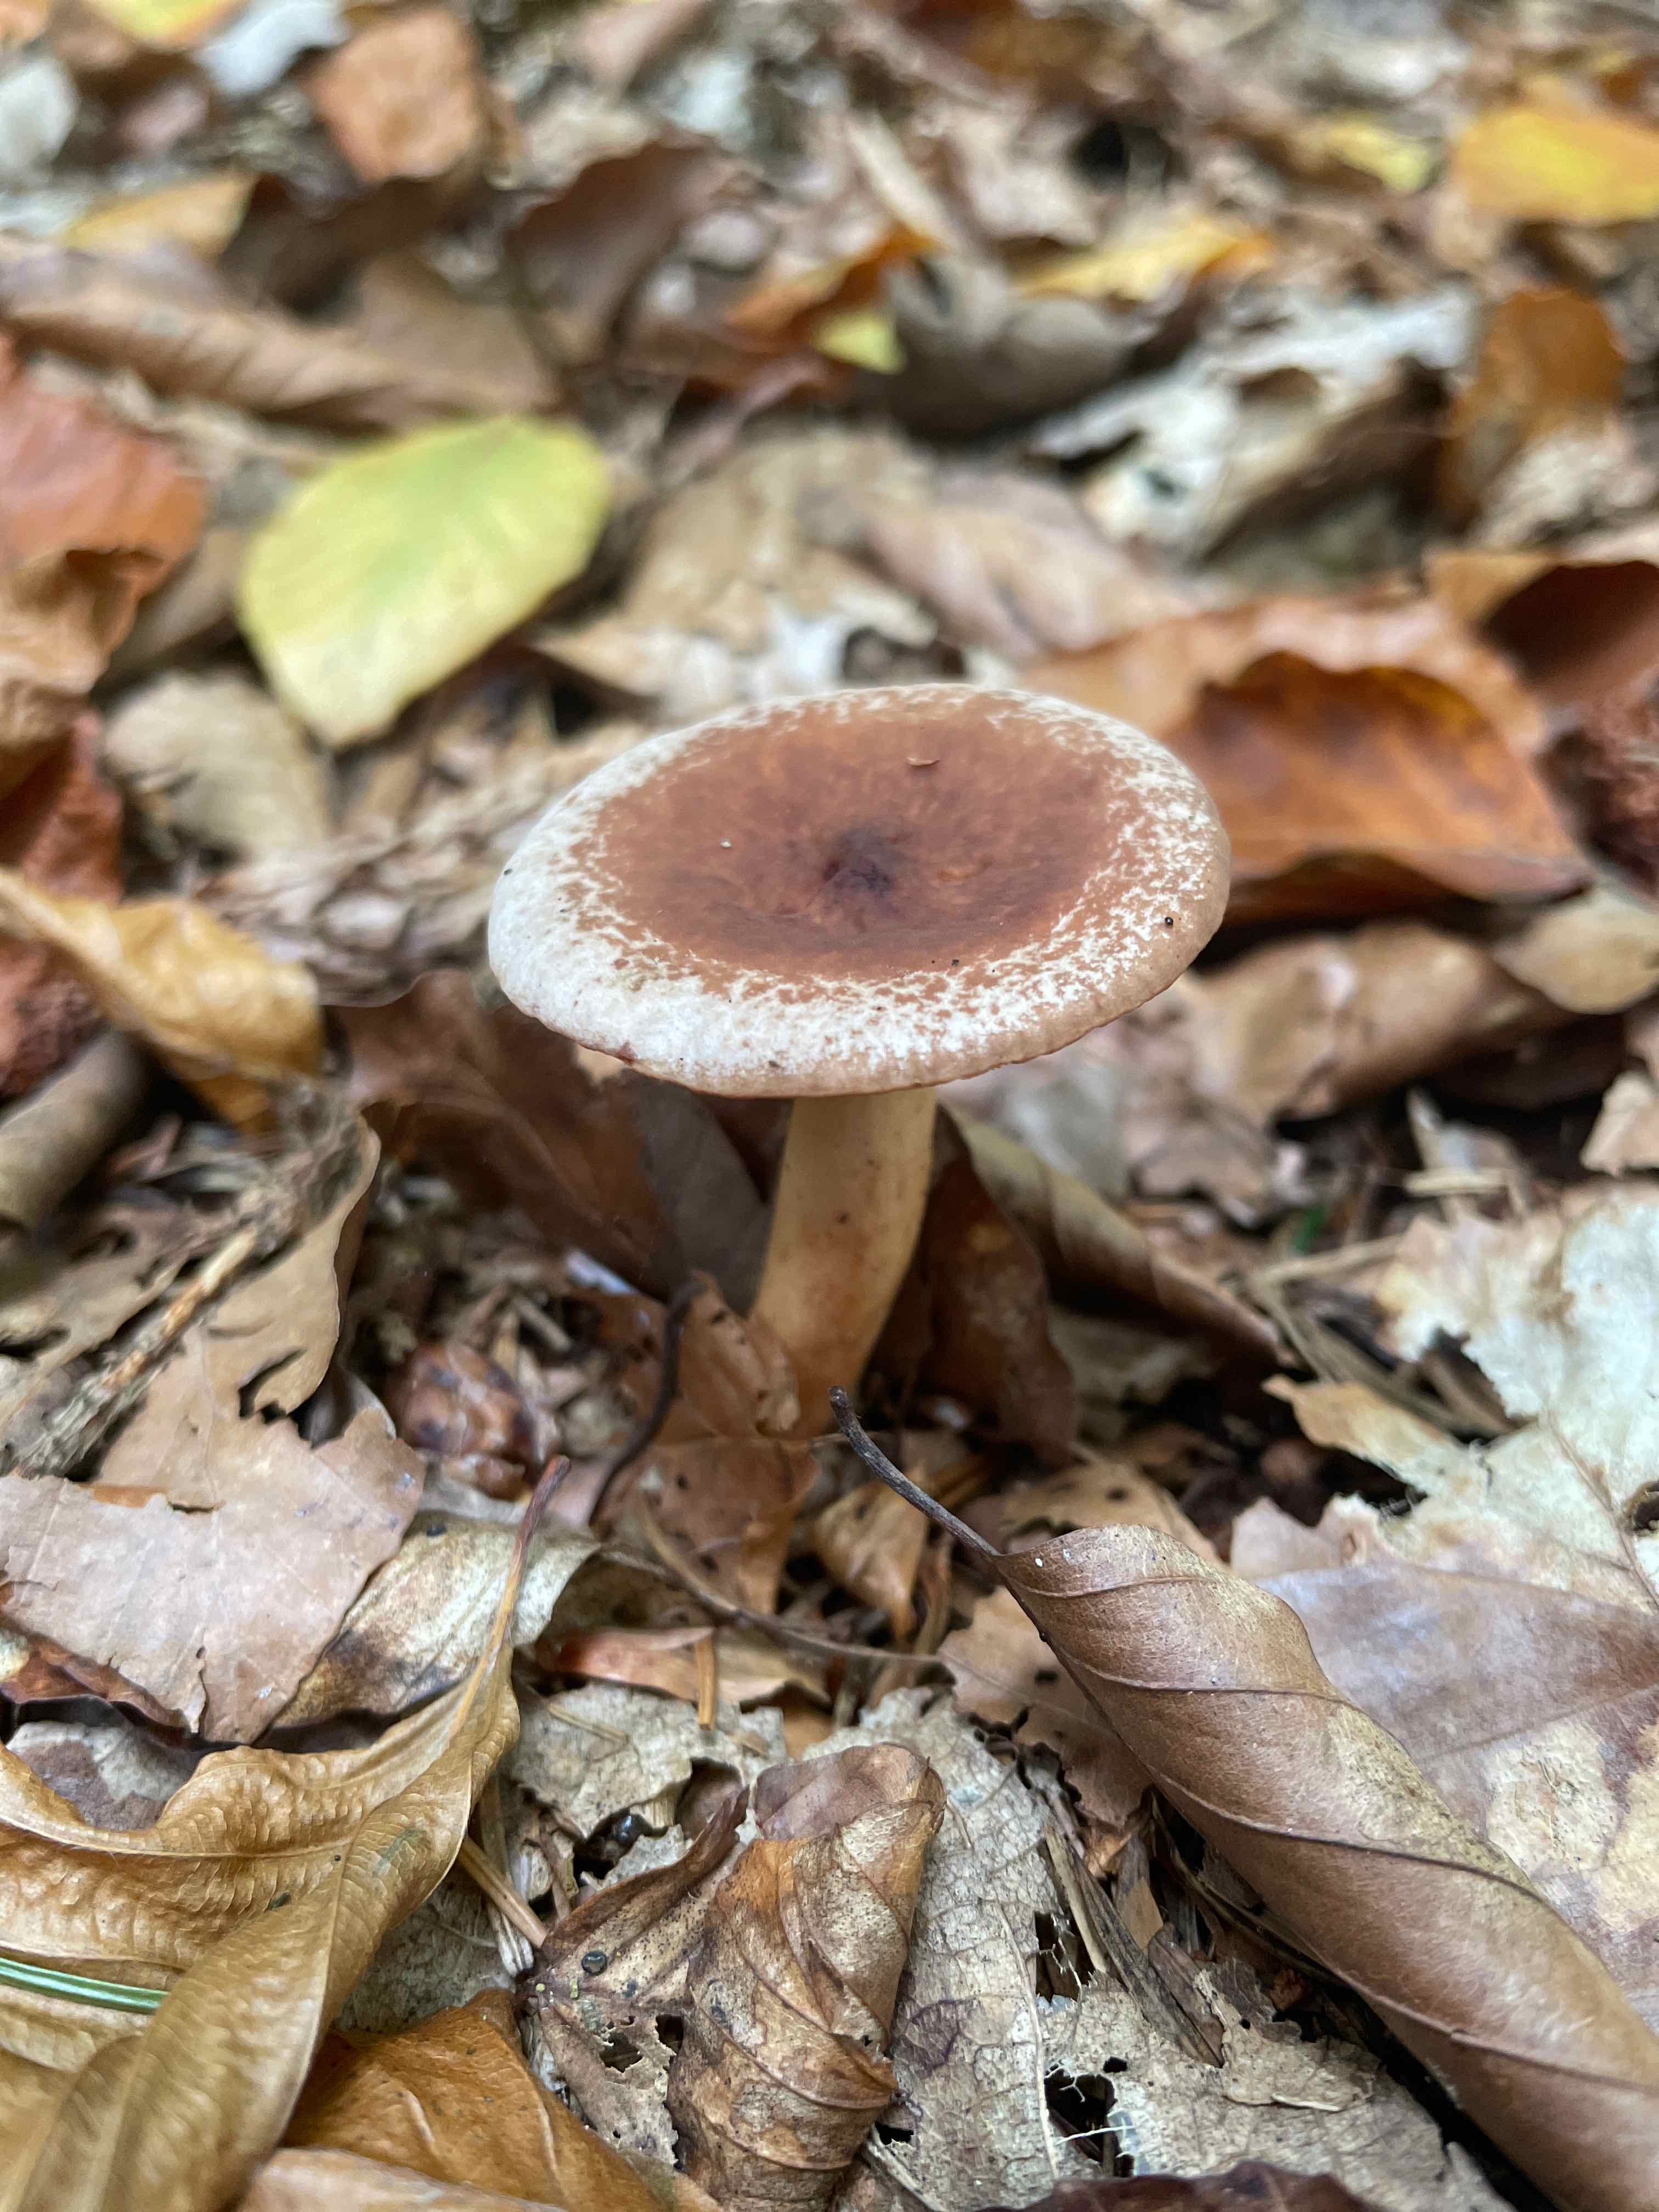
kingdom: Fungi
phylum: Basidiomycota
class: Agaricomycetes
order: Russulales
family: Russulaceae
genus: Lactarius
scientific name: Lactarius
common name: mælkehat
